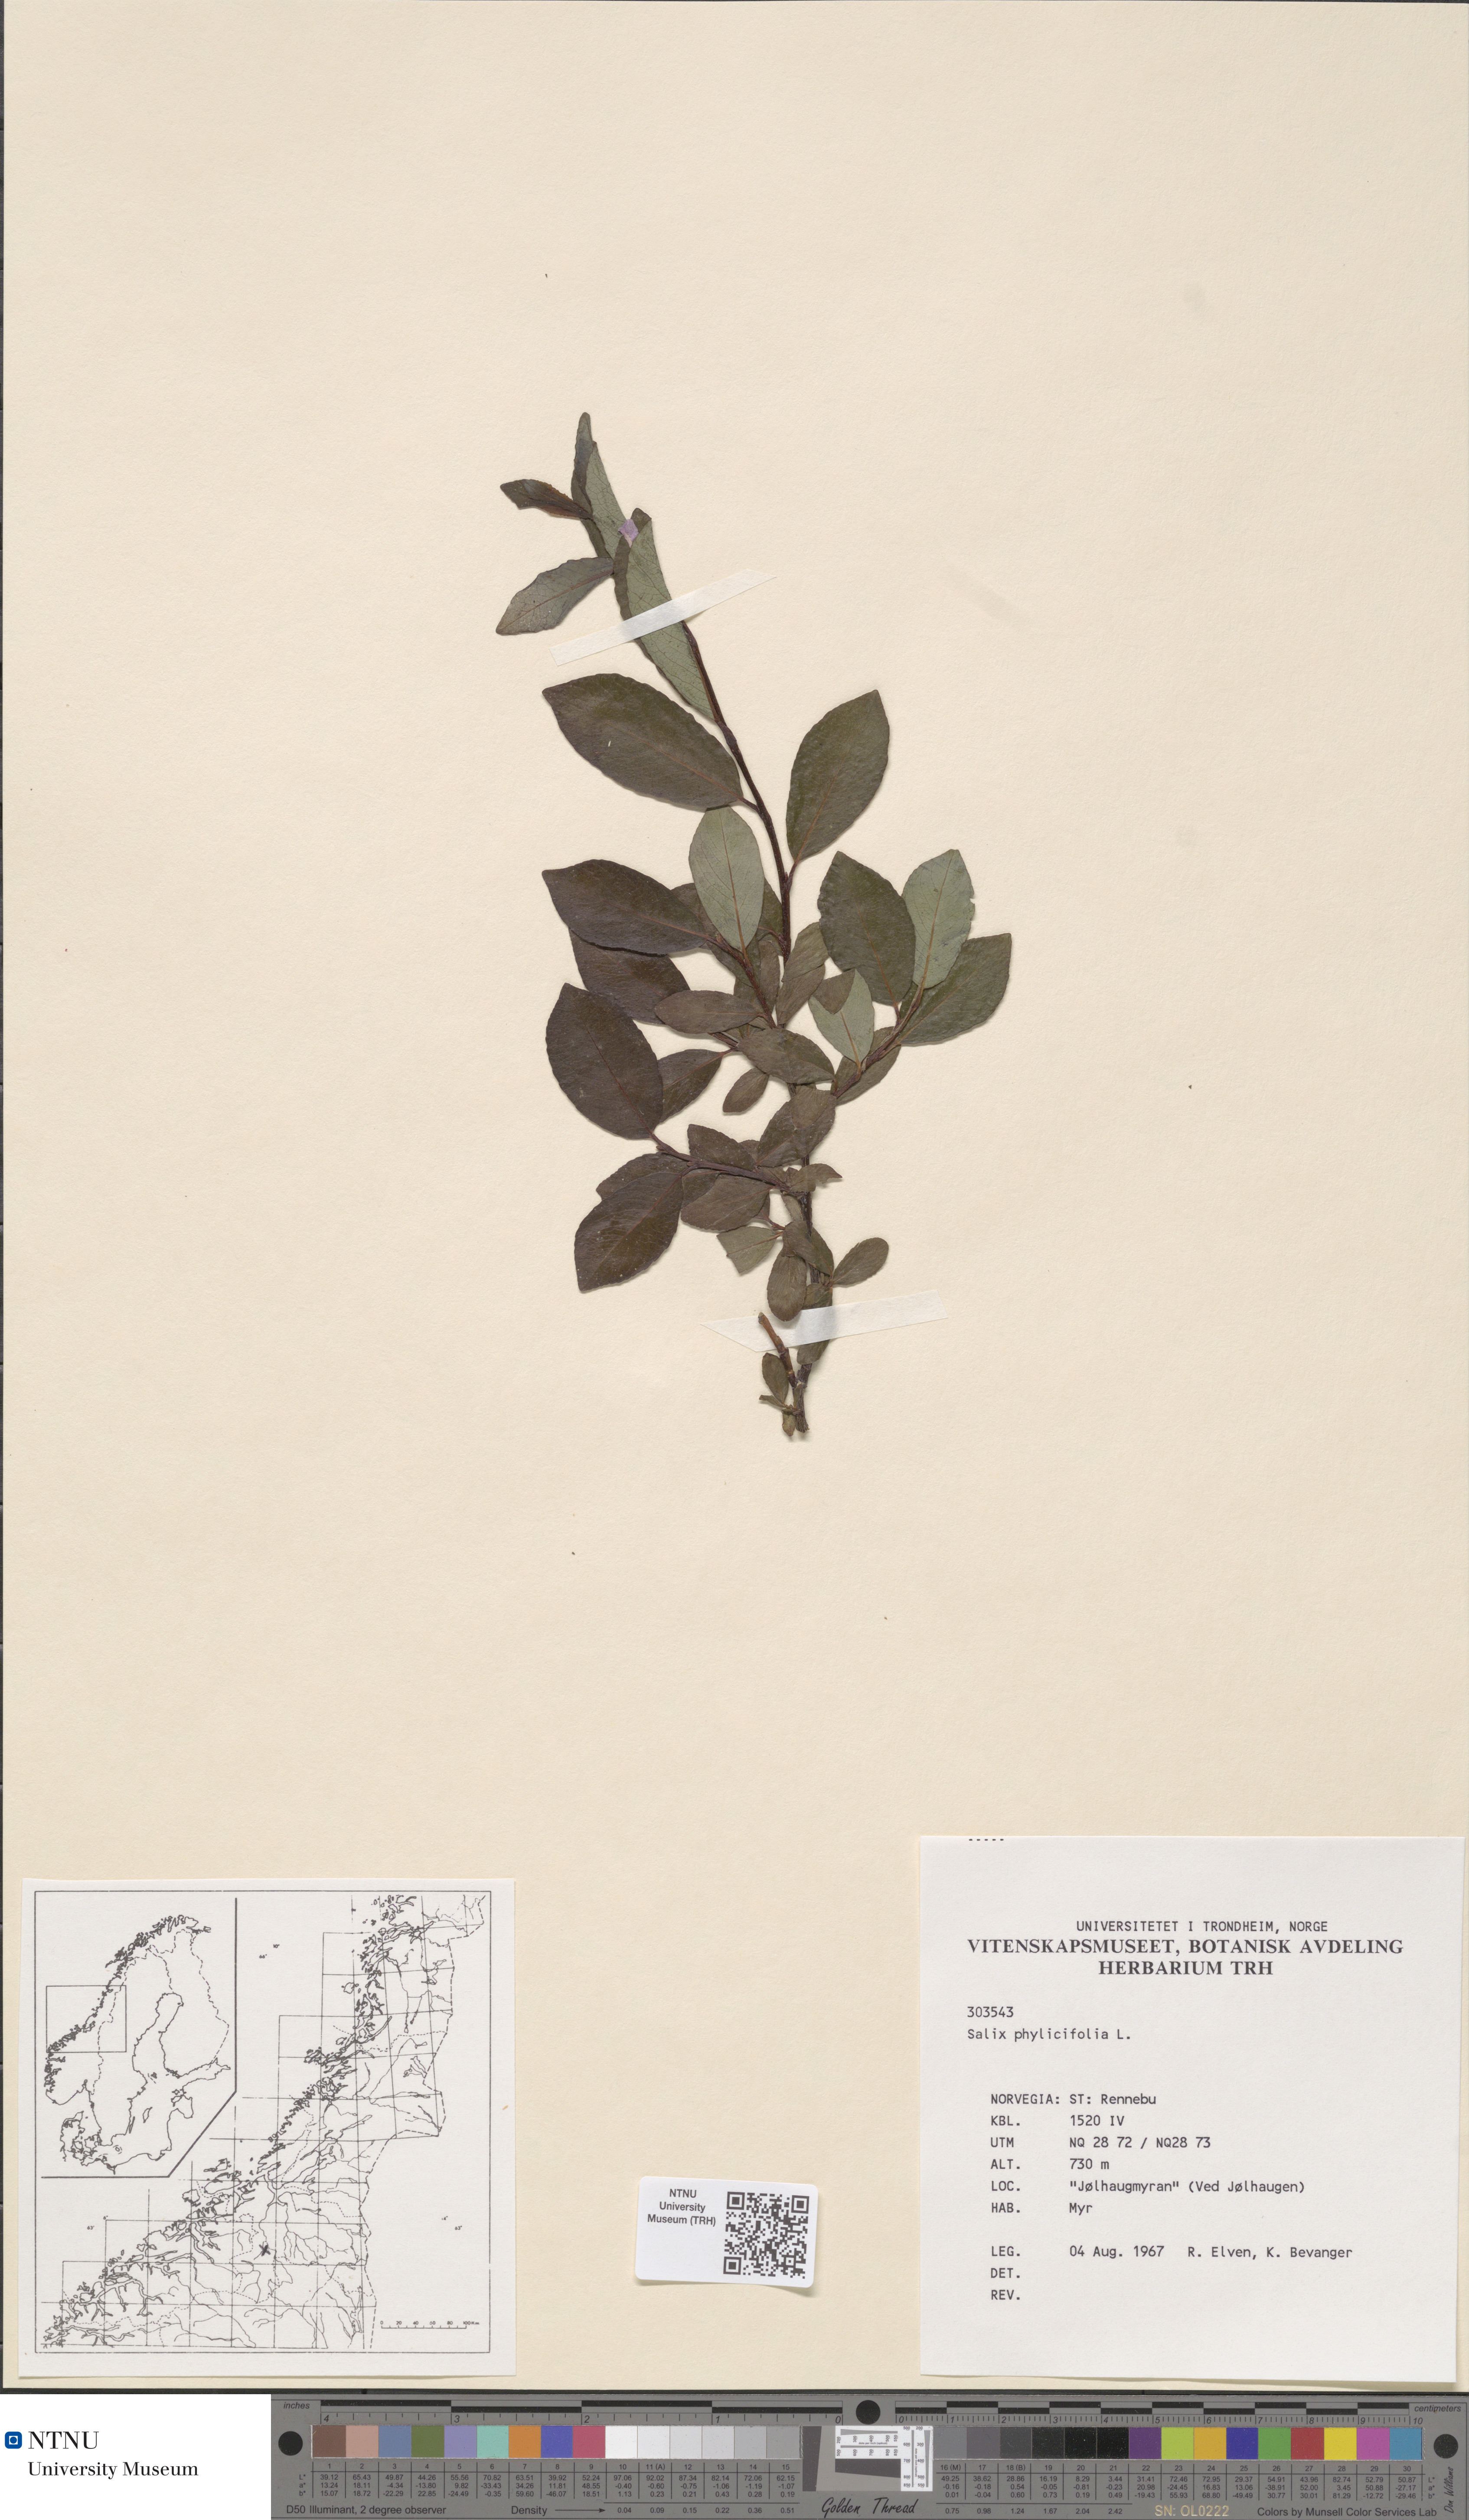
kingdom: Plantae
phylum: Tracheophyta
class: Magnoliopsida
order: Malpighiales
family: Salicaceae
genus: Salix
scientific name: Salix phylicifolia
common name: Tea-leaved willow
